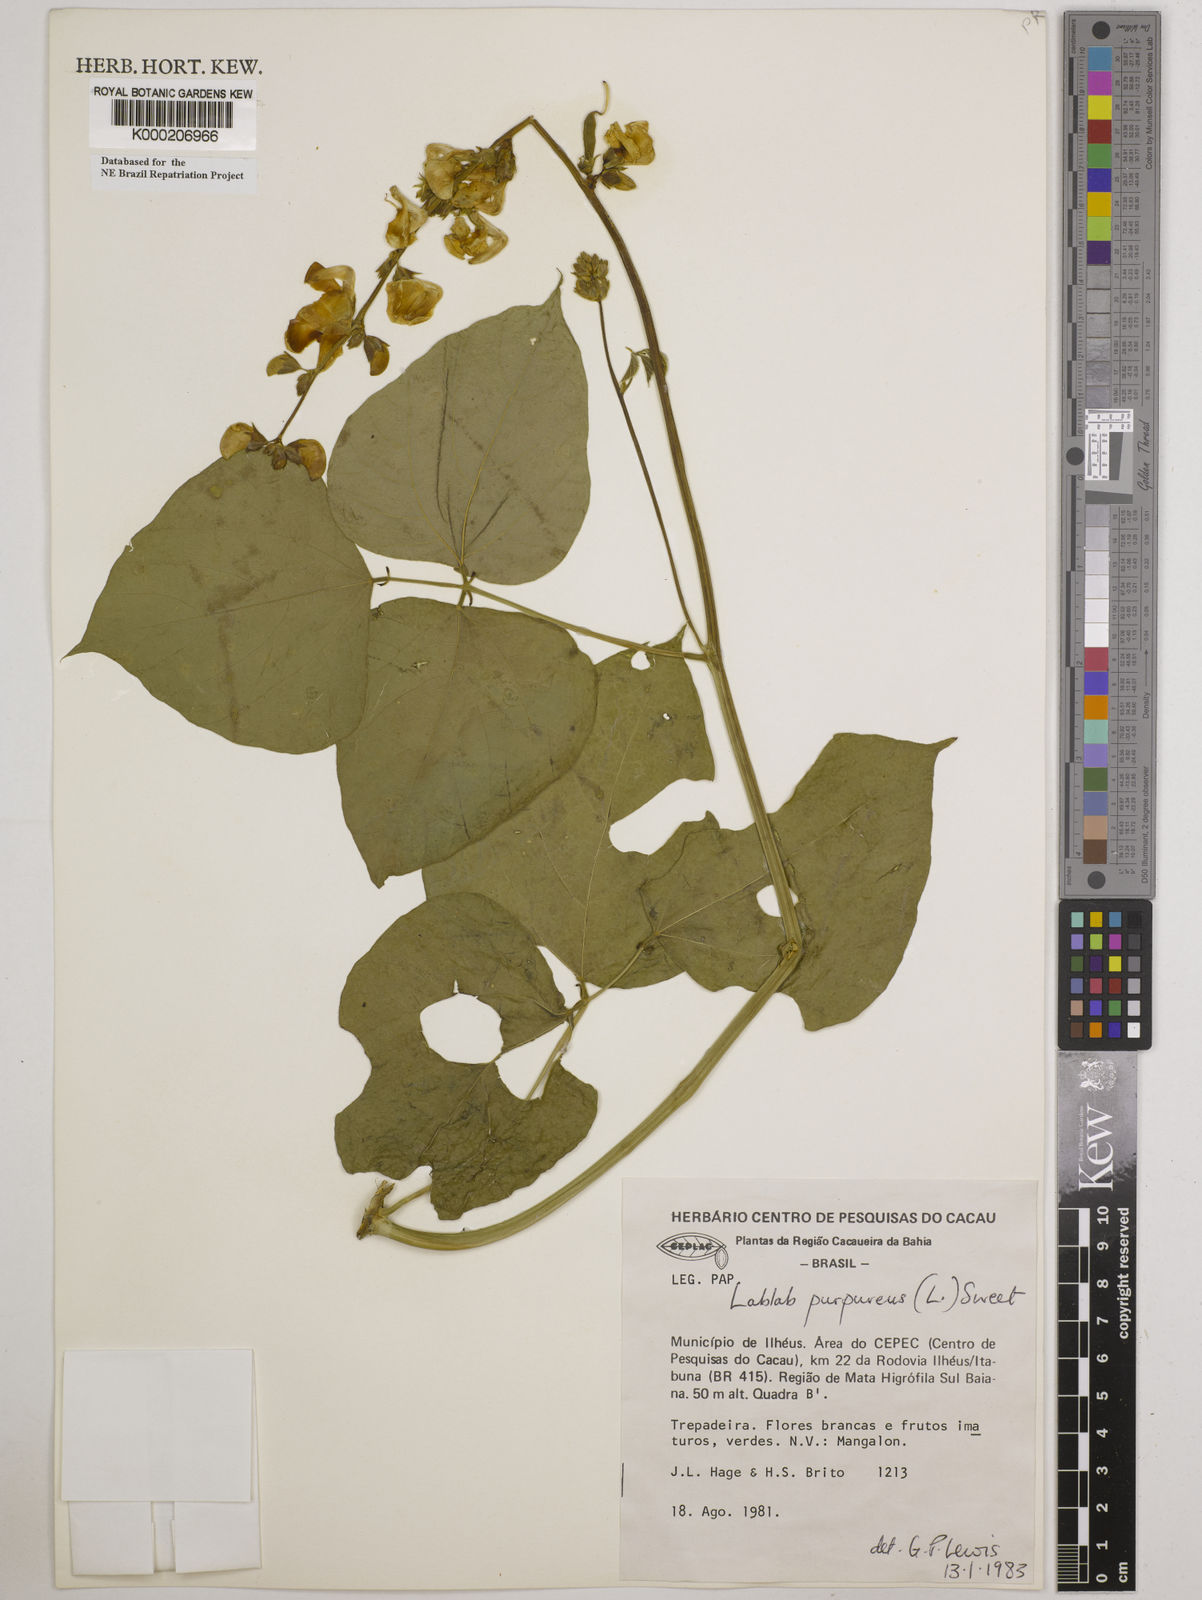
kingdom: Plantae
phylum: Tracheophyta
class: Magnoliopsida
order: Fabales
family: Fabaceae
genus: Lablab
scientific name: Lablab purpureus
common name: Lablab-bean
